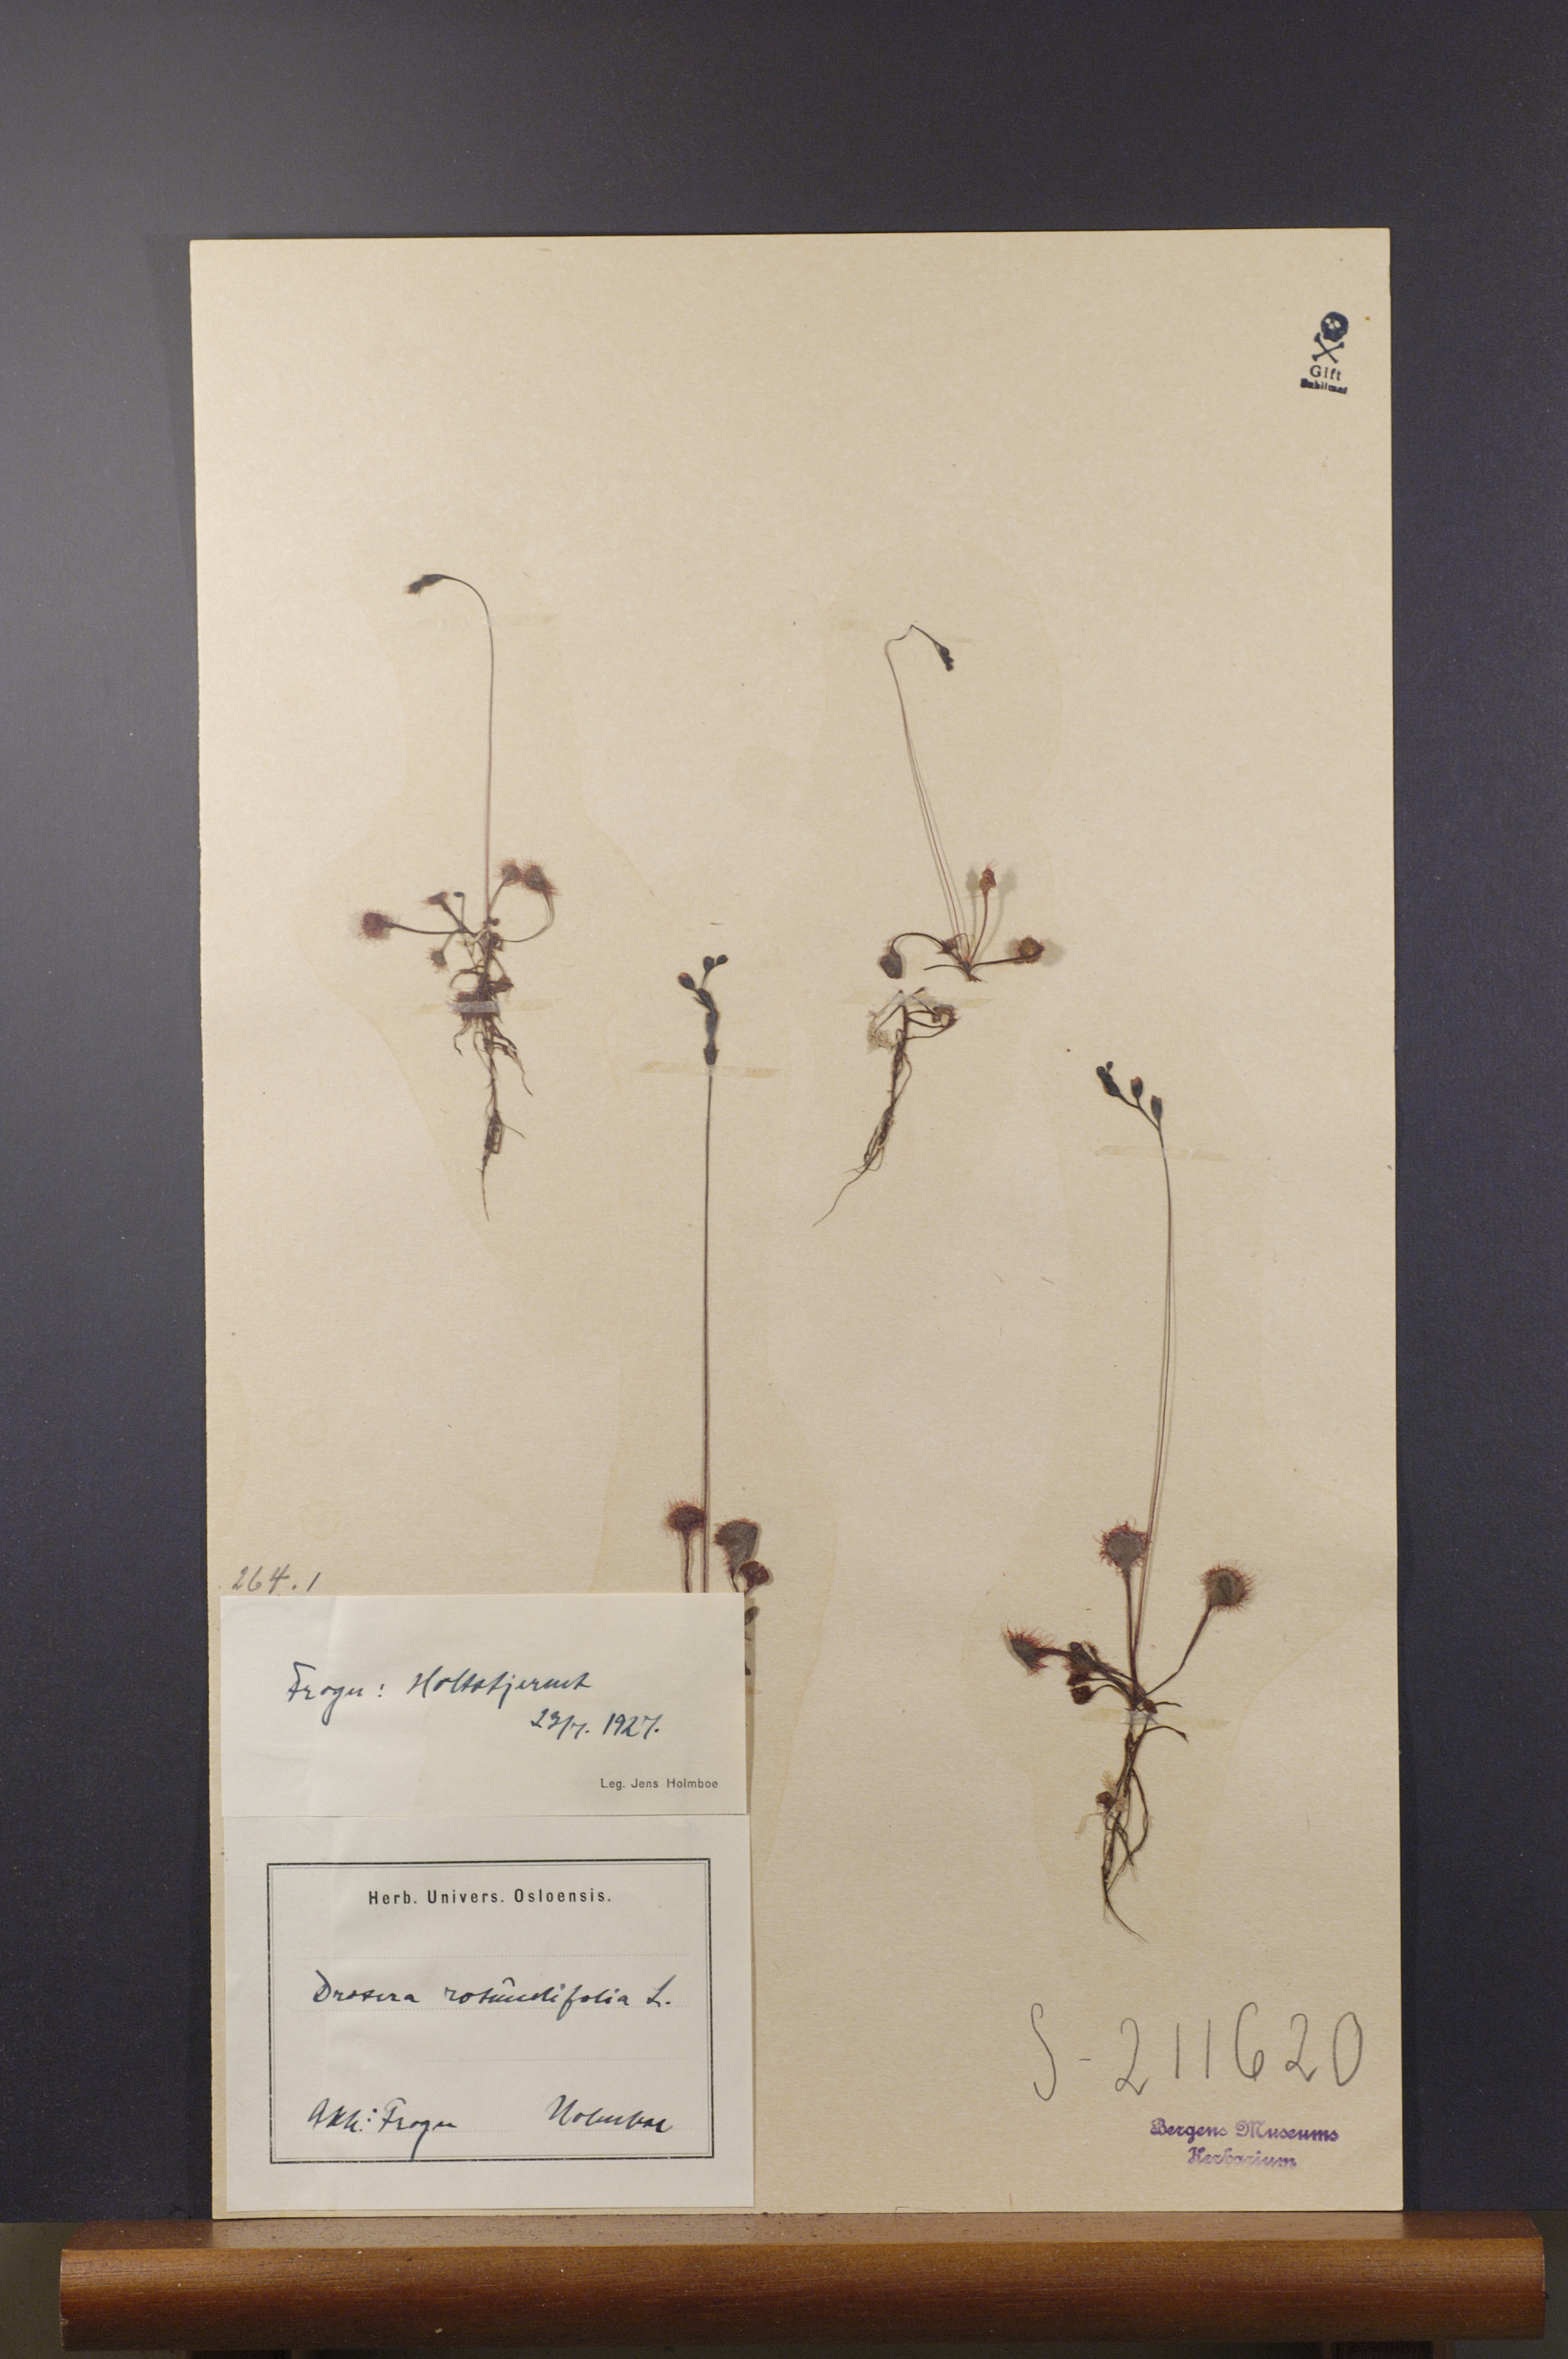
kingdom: Plantae
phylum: Tracheophyta
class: Magnoliopsida
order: Caryophyllales
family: Droseraceae
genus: Drosera
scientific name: Drosera rotundifolia
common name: Round-leaved sundew
